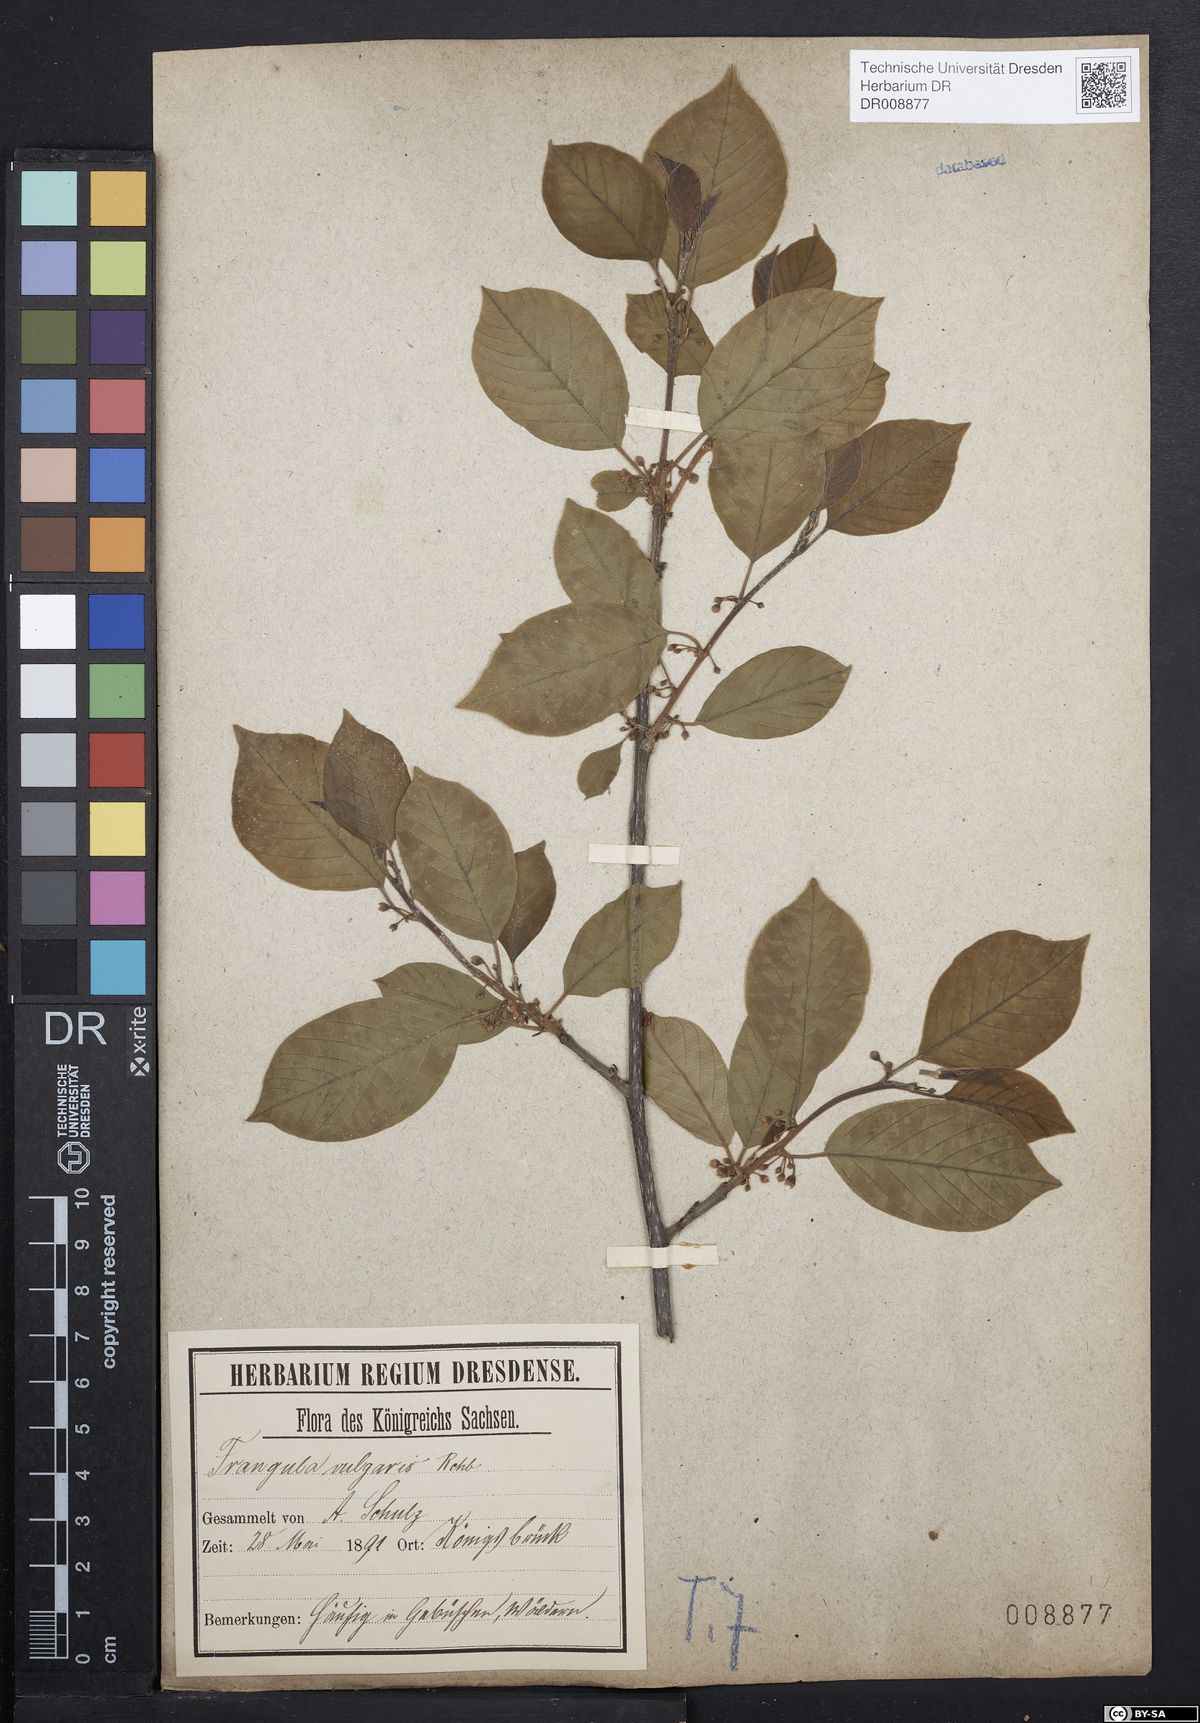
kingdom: Plantae
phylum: Tracheophyta
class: Magnoliopsida
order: Rosales
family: Rhamnaceae
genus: Frangula
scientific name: Frangula alnus
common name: Alder buckthorn
